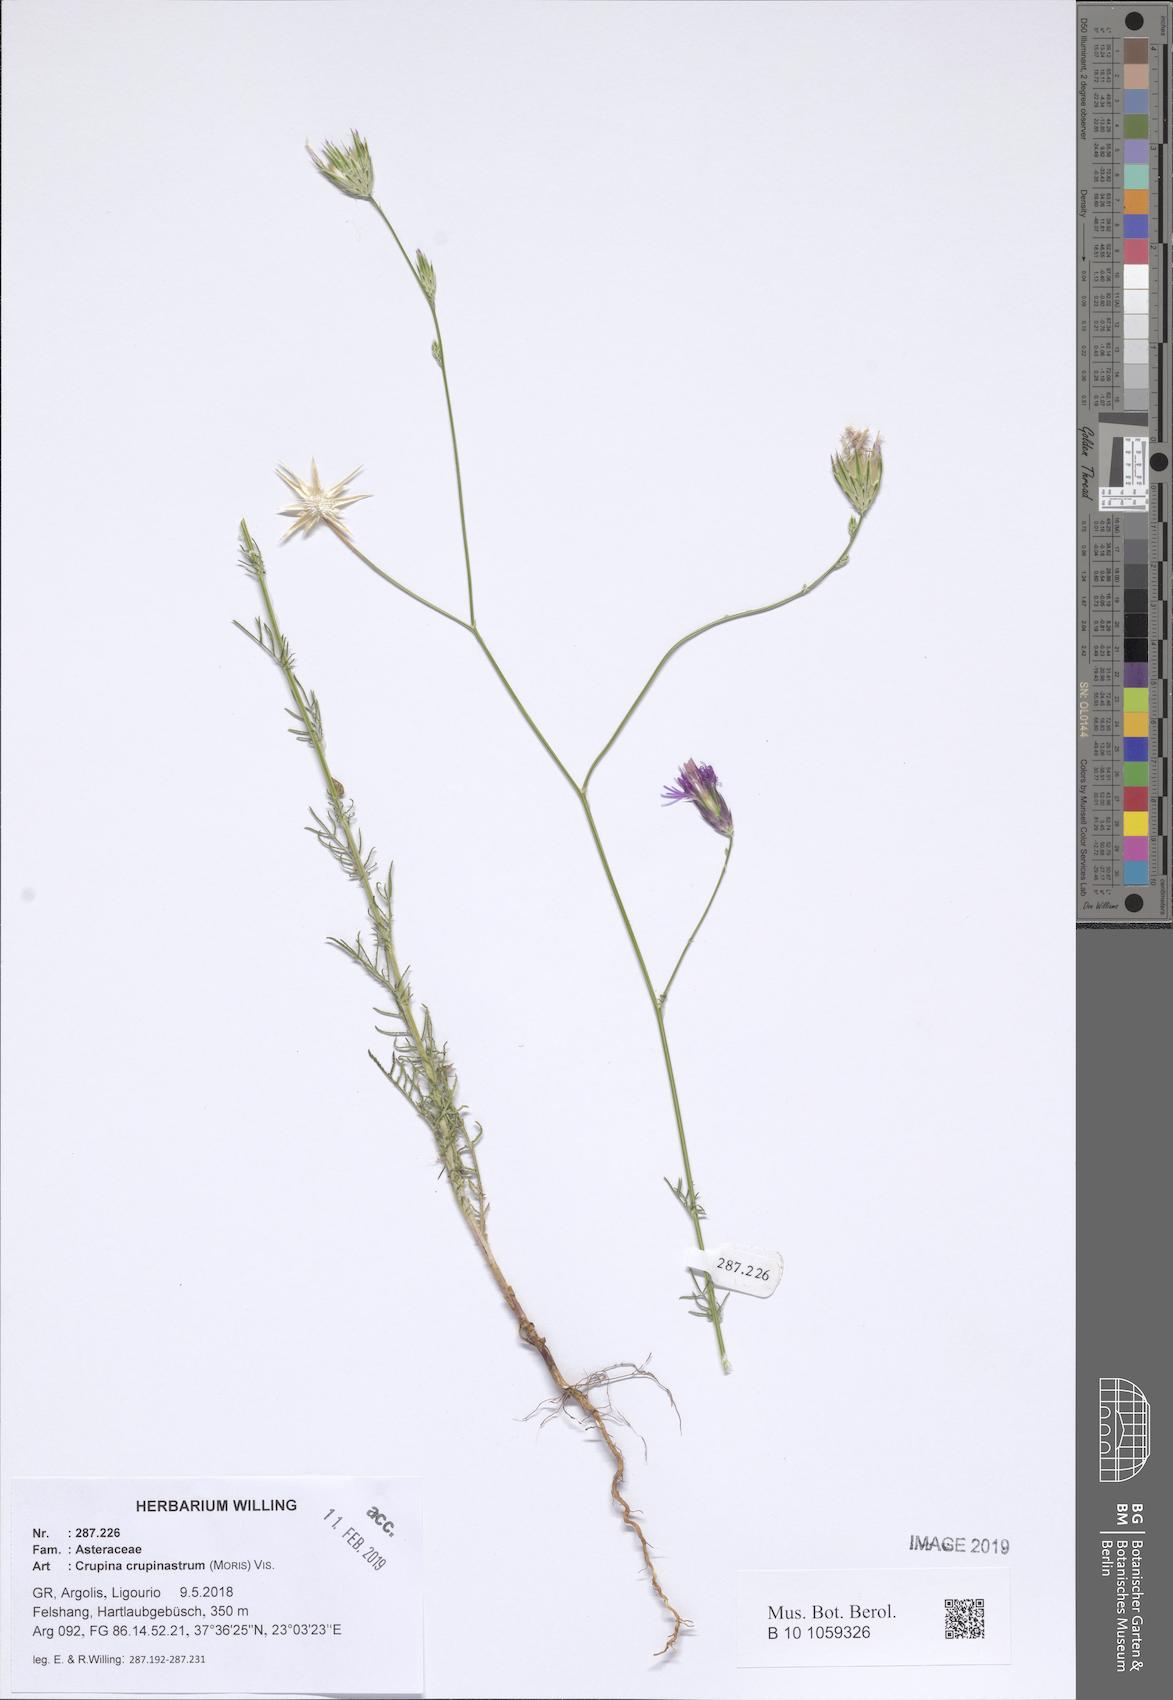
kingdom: Plantae
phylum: Tracheophyta
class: Magnoliopsida
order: Asterales
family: Asteraceae
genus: Crupina
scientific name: Crupina crupinastrum
